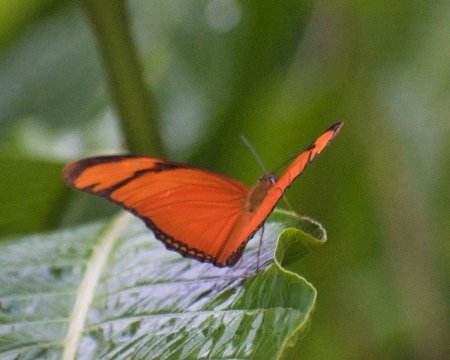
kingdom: Animalia
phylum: Arthropoda
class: Insecta
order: Lepidoptera
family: Nymphalidae
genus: Dryas
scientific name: Dryas iulia
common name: Julia
